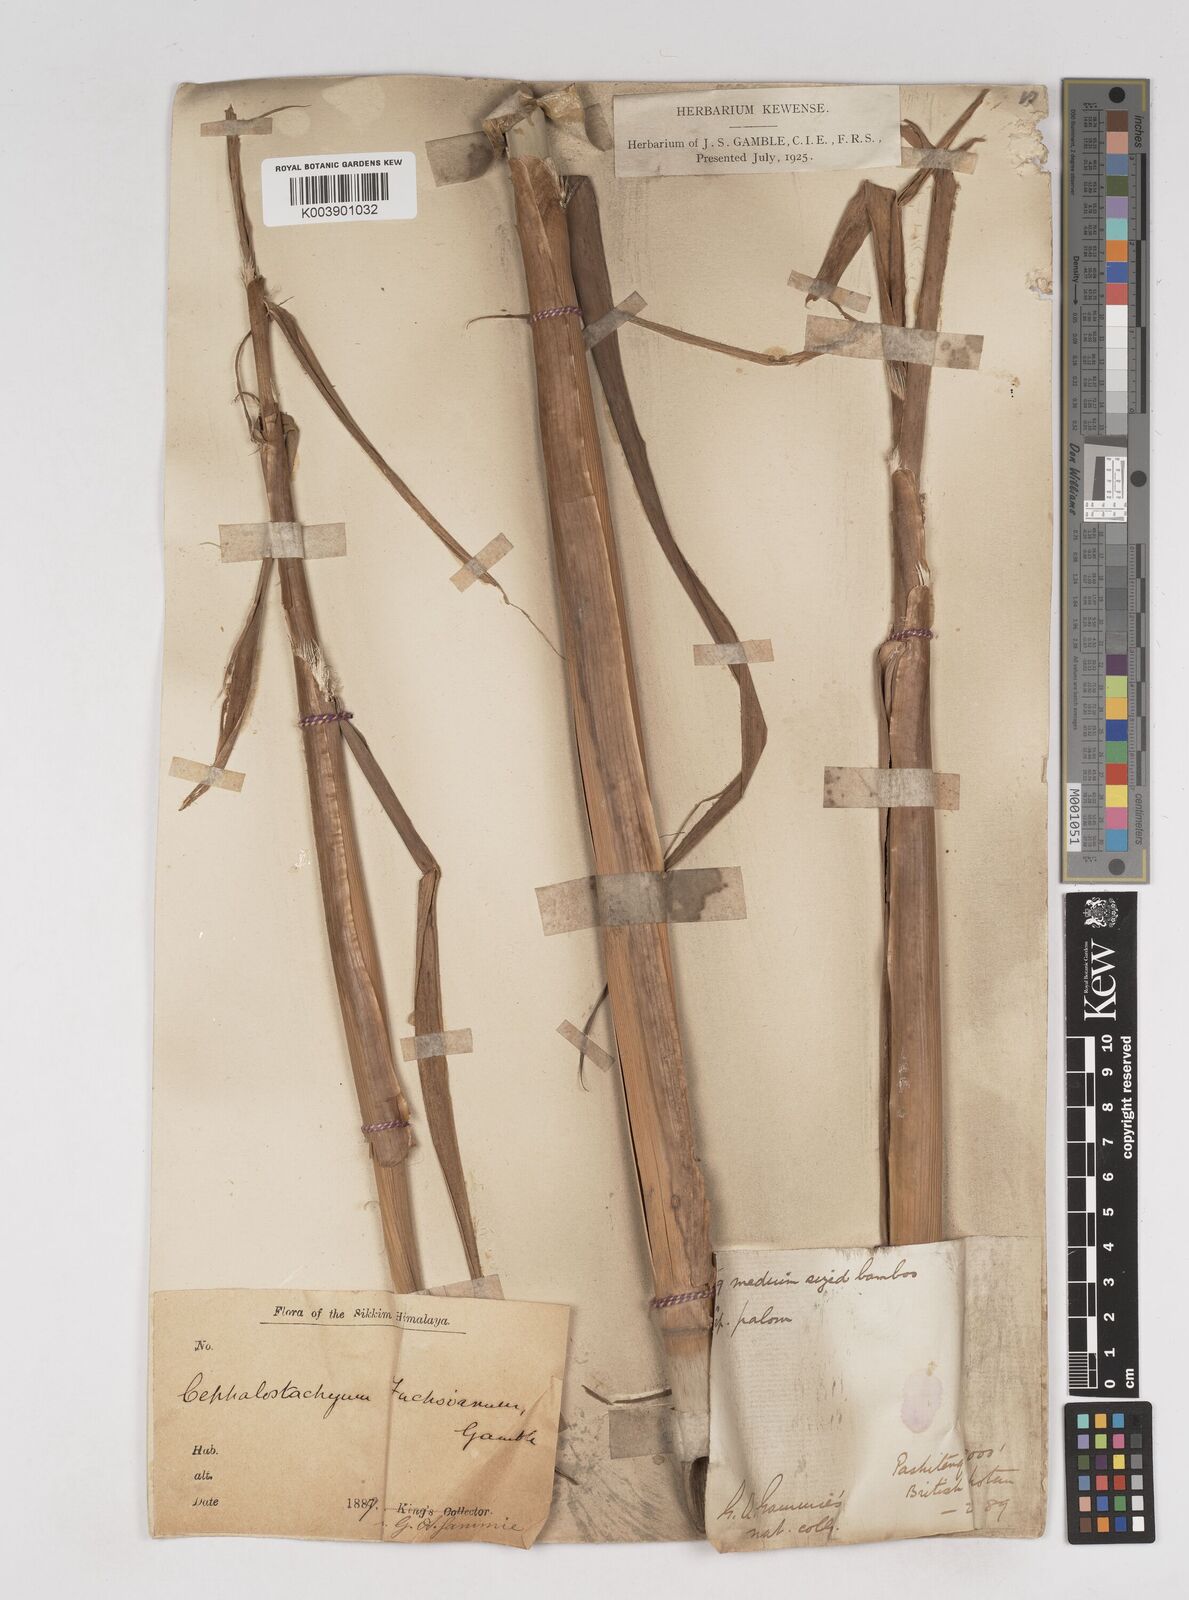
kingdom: Plantae
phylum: Tracheophyta
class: Liliopsida
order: Poales
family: Poaceae
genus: Cephalostachyum
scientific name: Cephalostachyum latifolium
